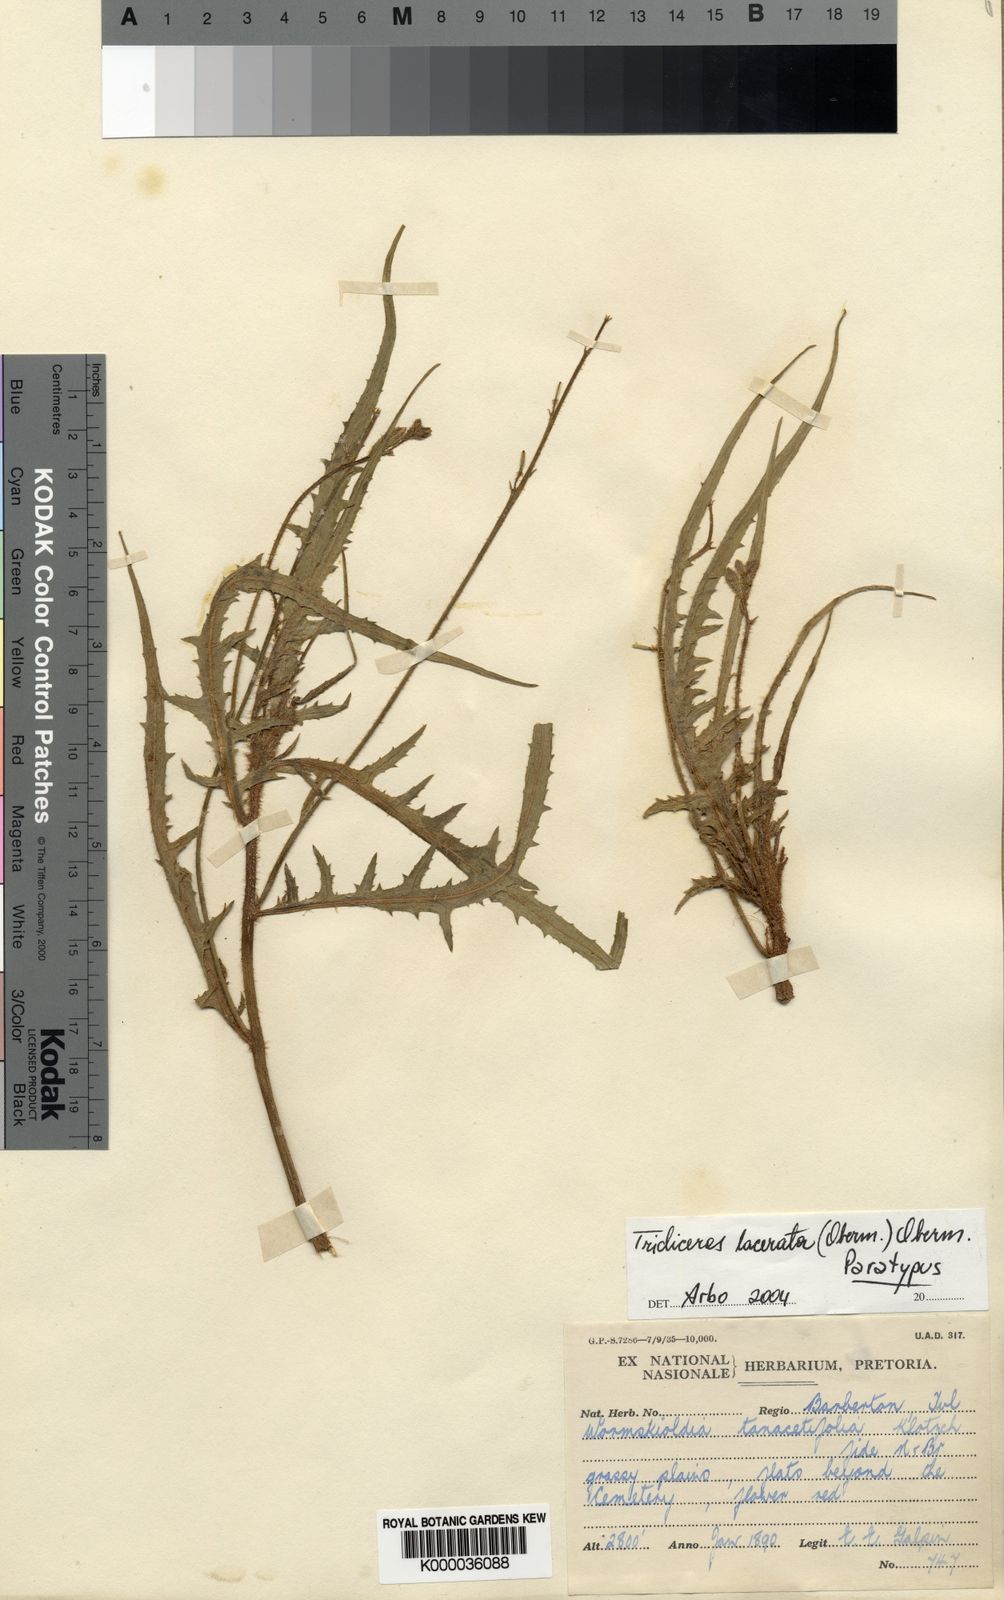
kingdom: Plantae
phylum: Tracheophyta
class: Magnoliopsida
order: Malpighiales
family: Turneraceae
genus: Streptopetalum
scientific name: Streptopetalum
